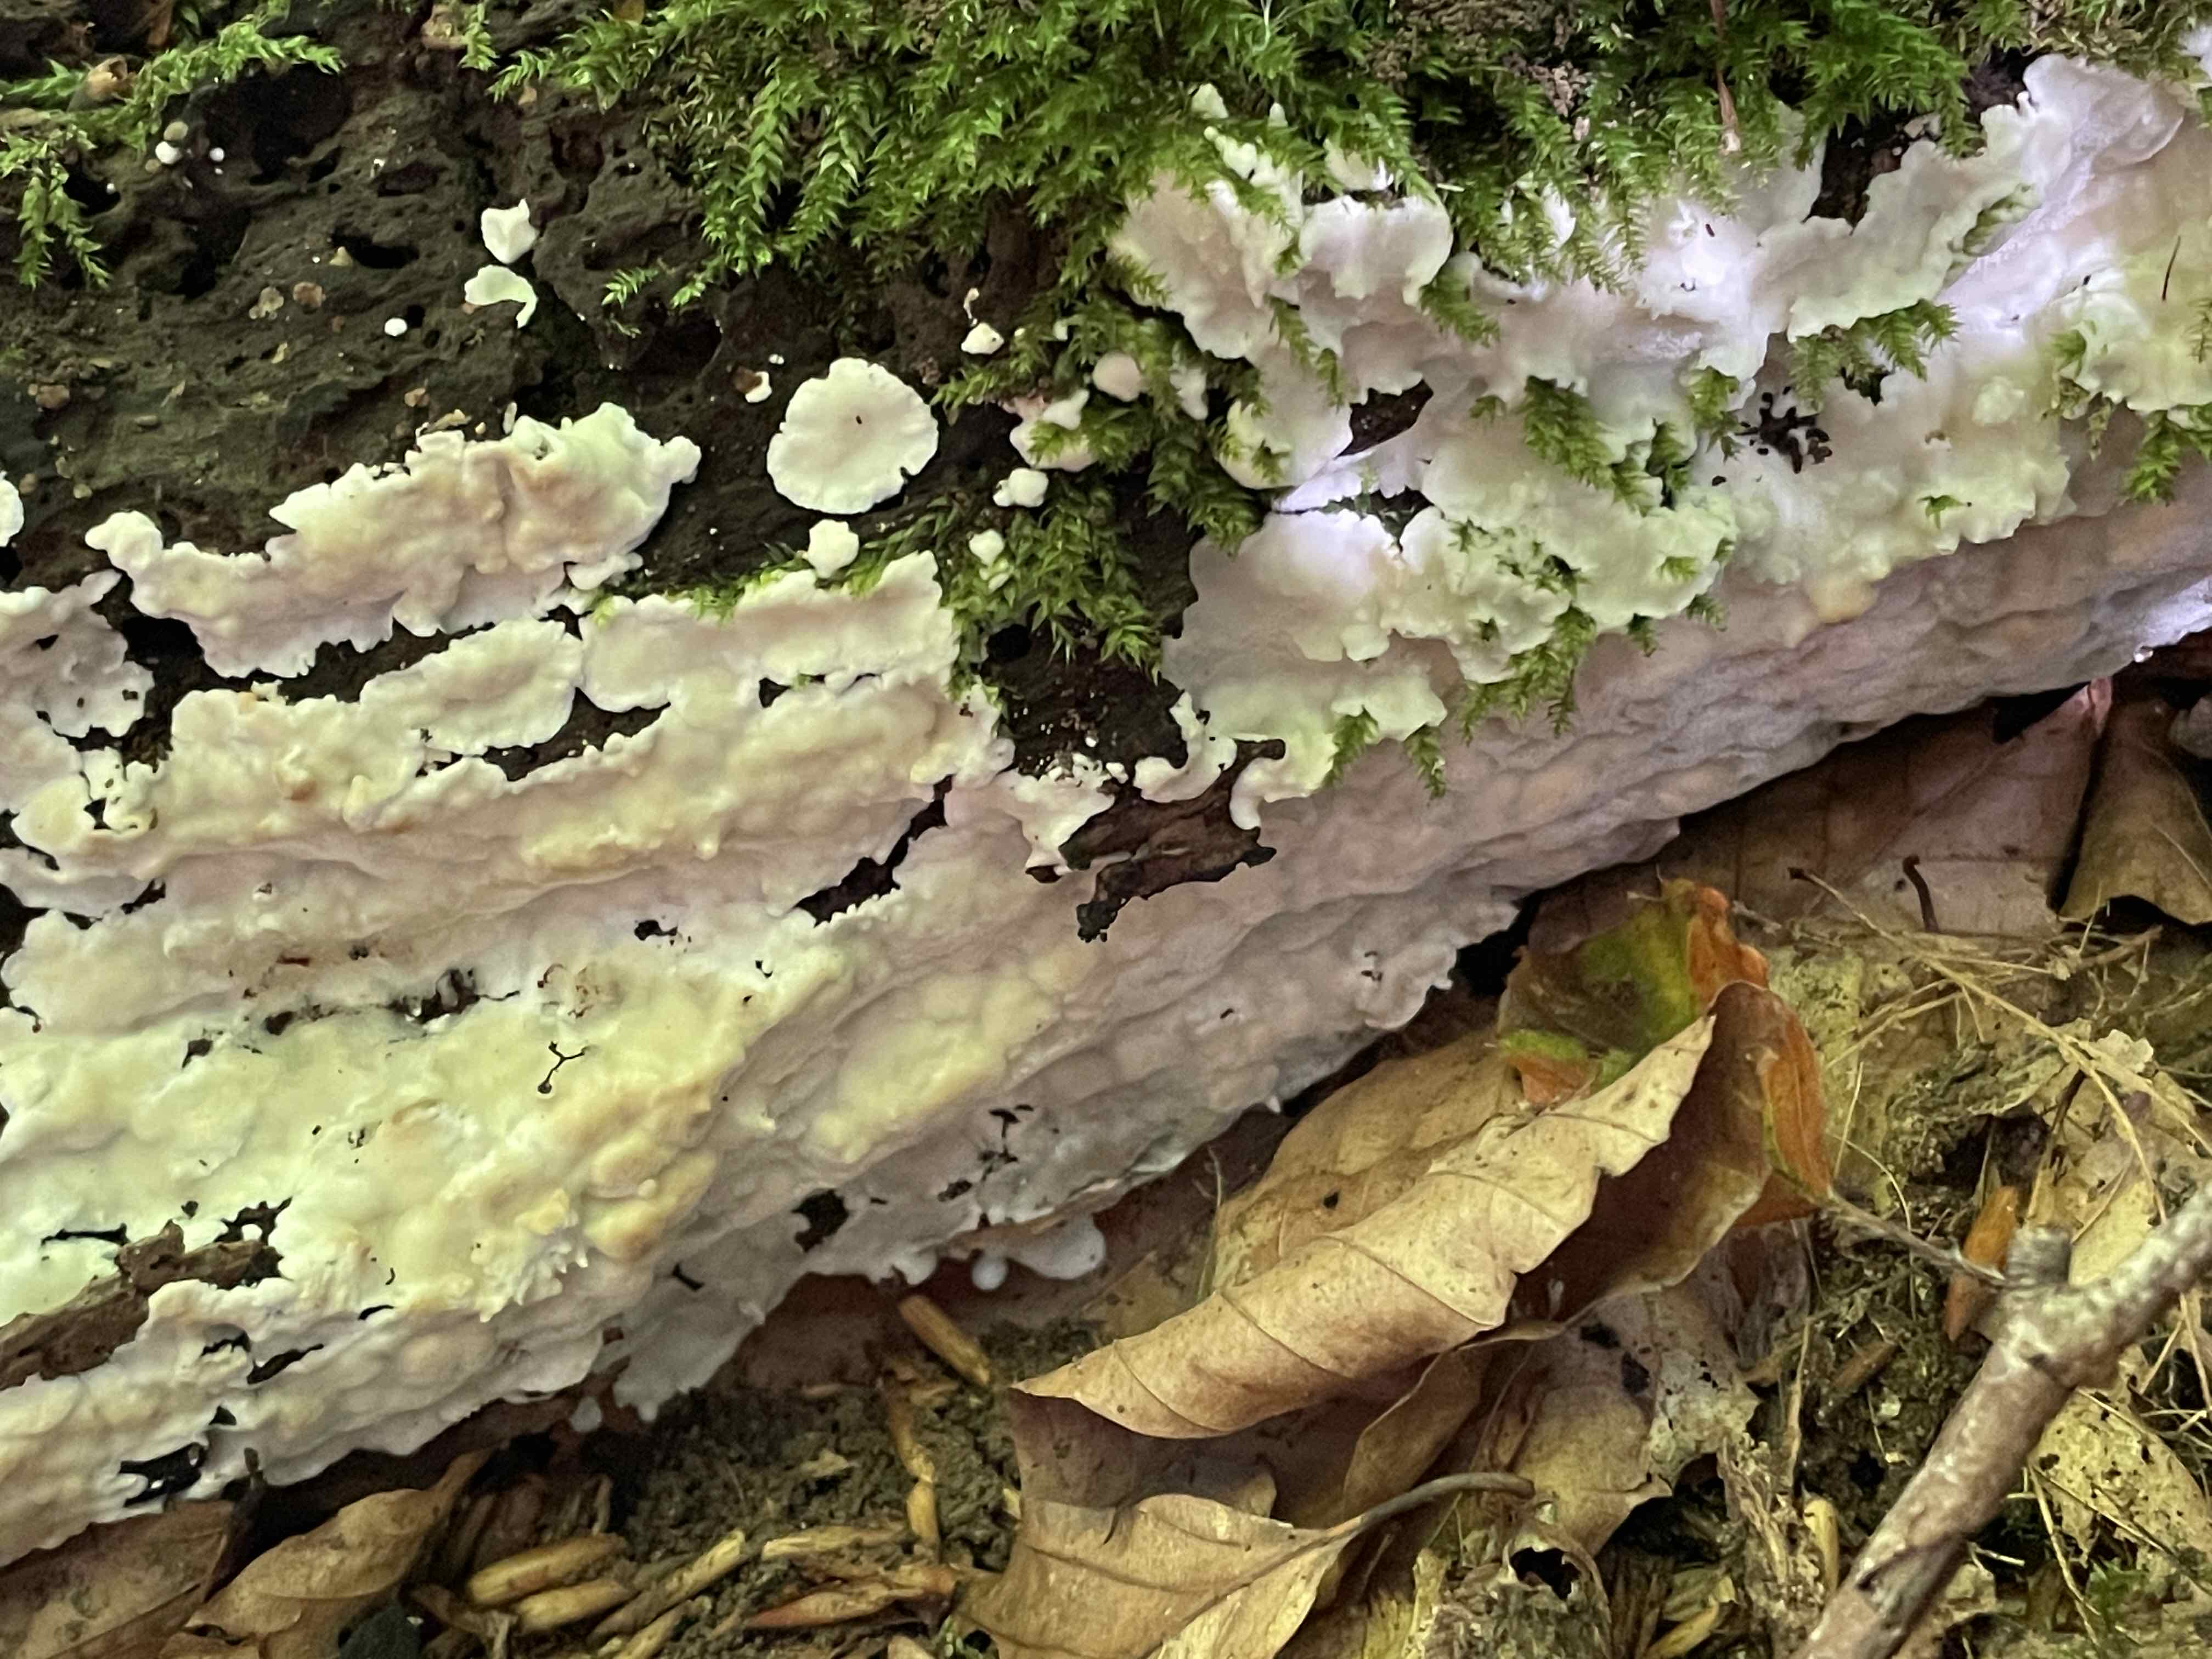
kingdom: Fungi
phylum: Basidiomycota
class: Agaricomycetes
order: Polyporales
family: Meruliaceae
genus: Physisporinus
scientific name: Physisporinus vitreus
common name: mastesvamp
